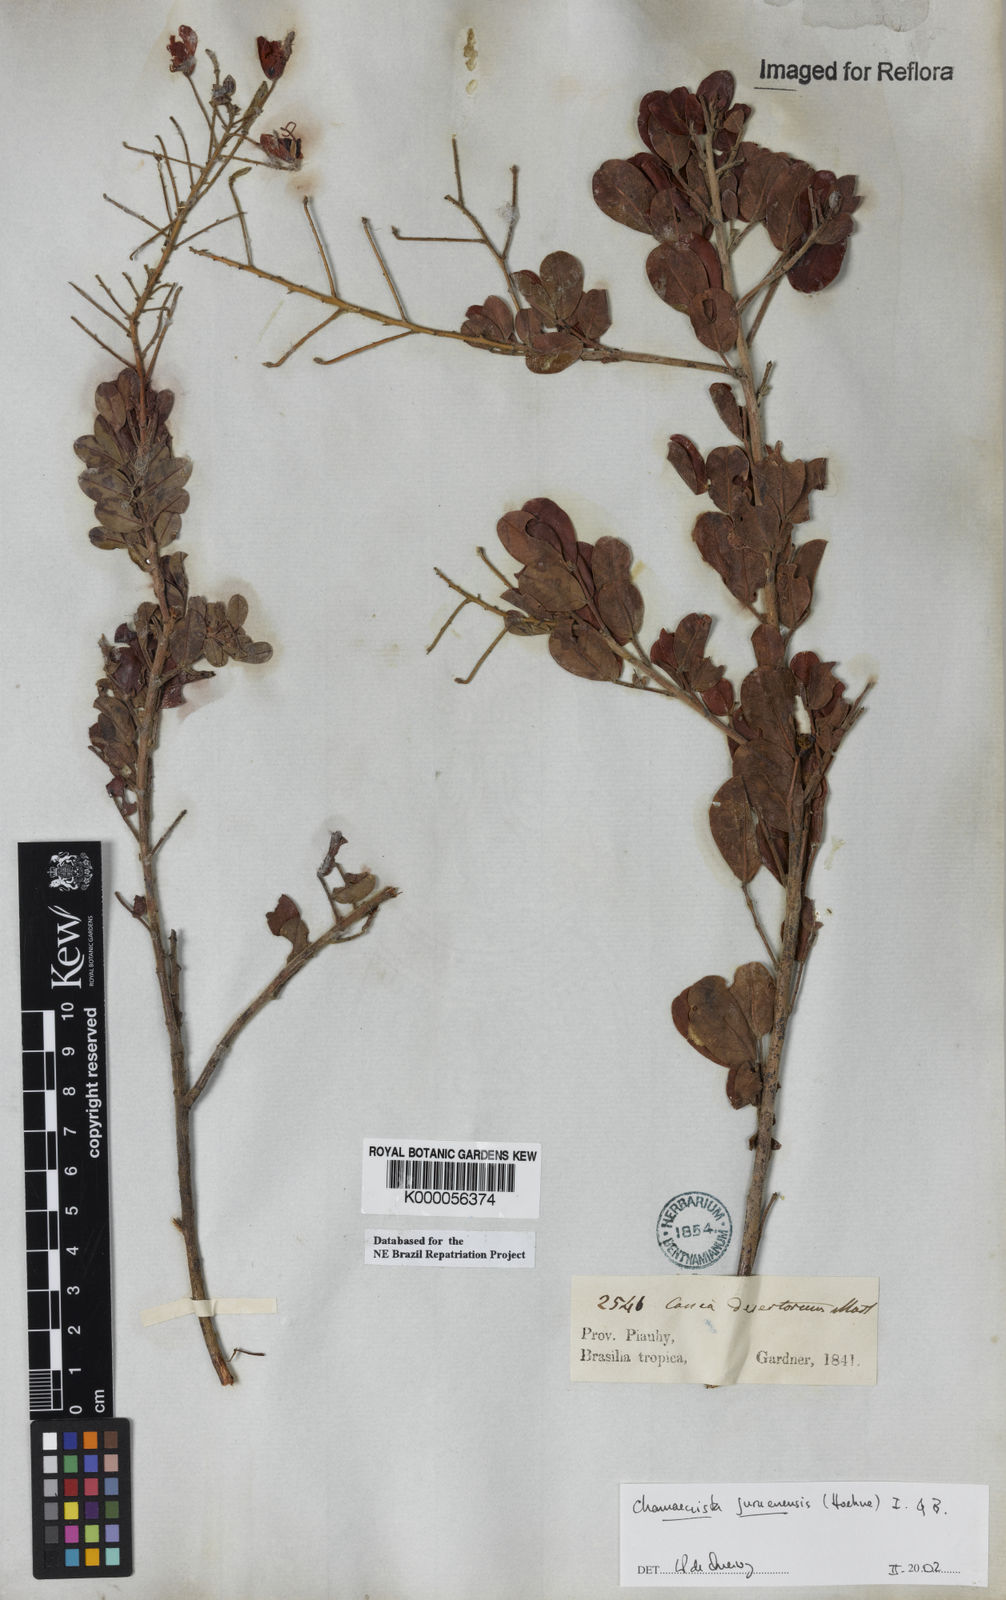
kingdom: Plantae
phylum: Tracheophyta
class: Magnoliopsida
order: Fabales
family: Fabaceae
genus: Chamaecrista
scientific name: Chamaecrista juruenensis
